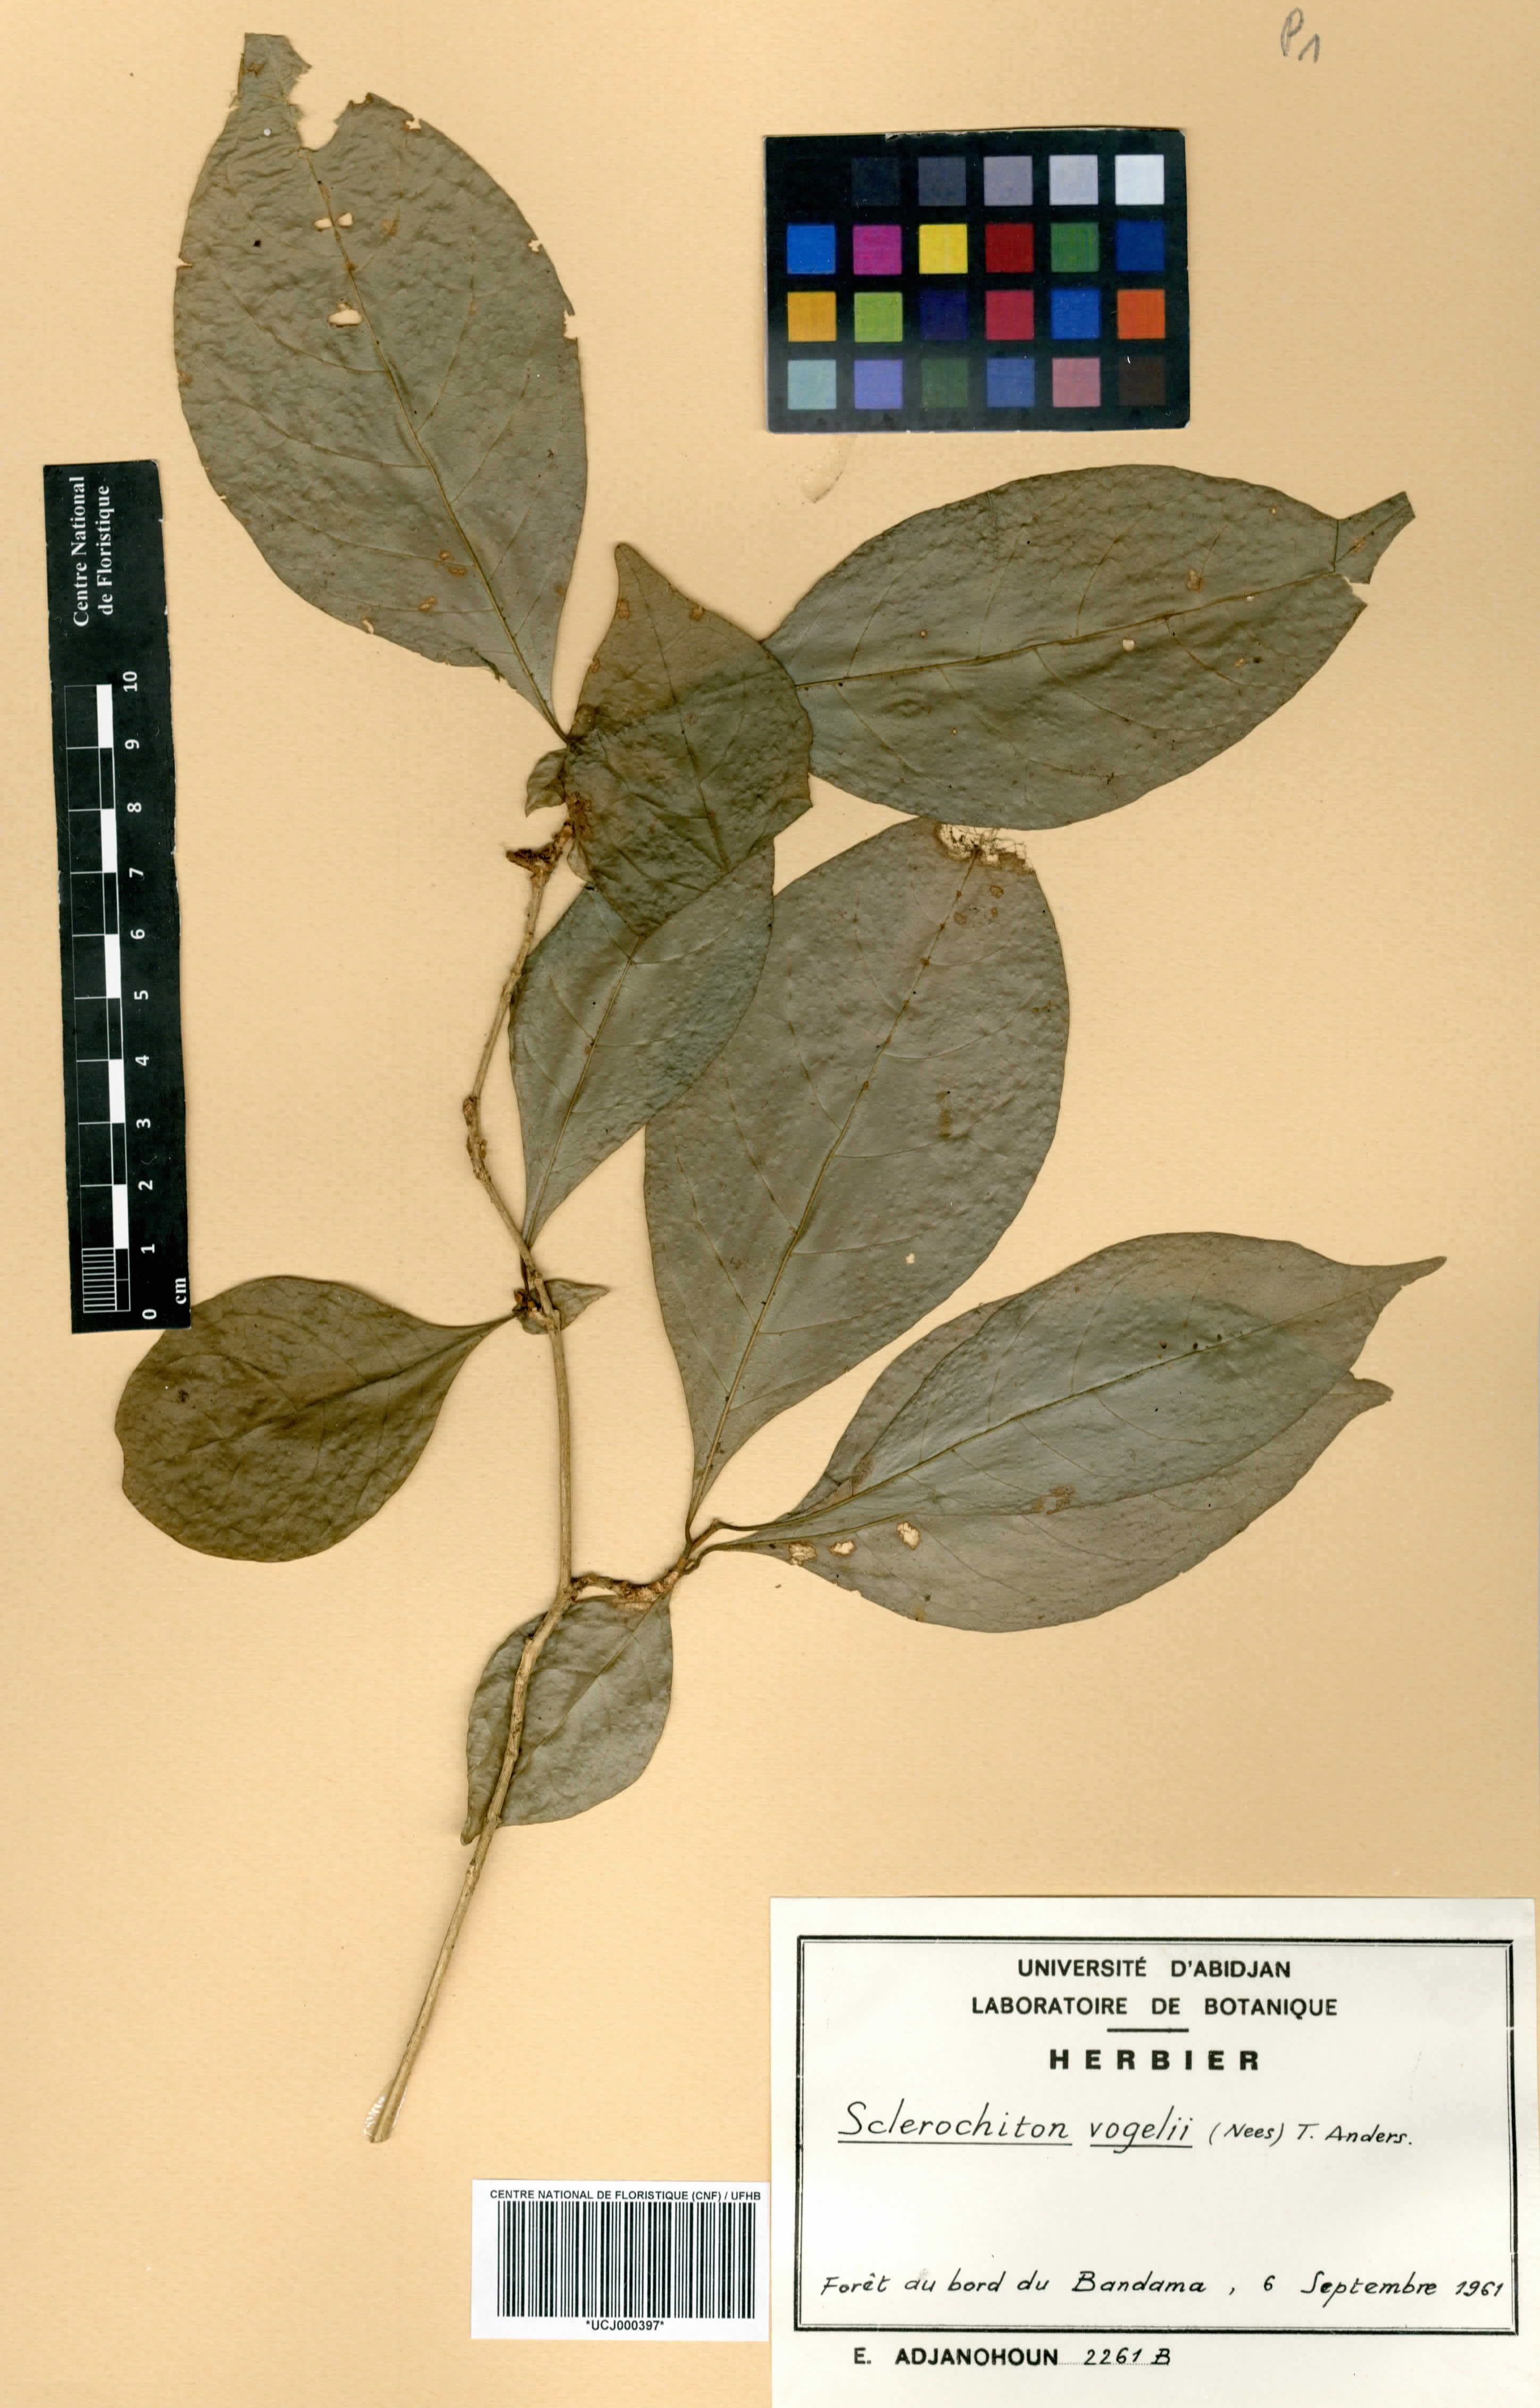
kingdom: Plantae
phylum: Tracheophyta
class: Magnoliopsida
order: Lamiales
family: Acanthaceae
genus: Sclerochiton
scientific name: Sclerochiton vogelii
